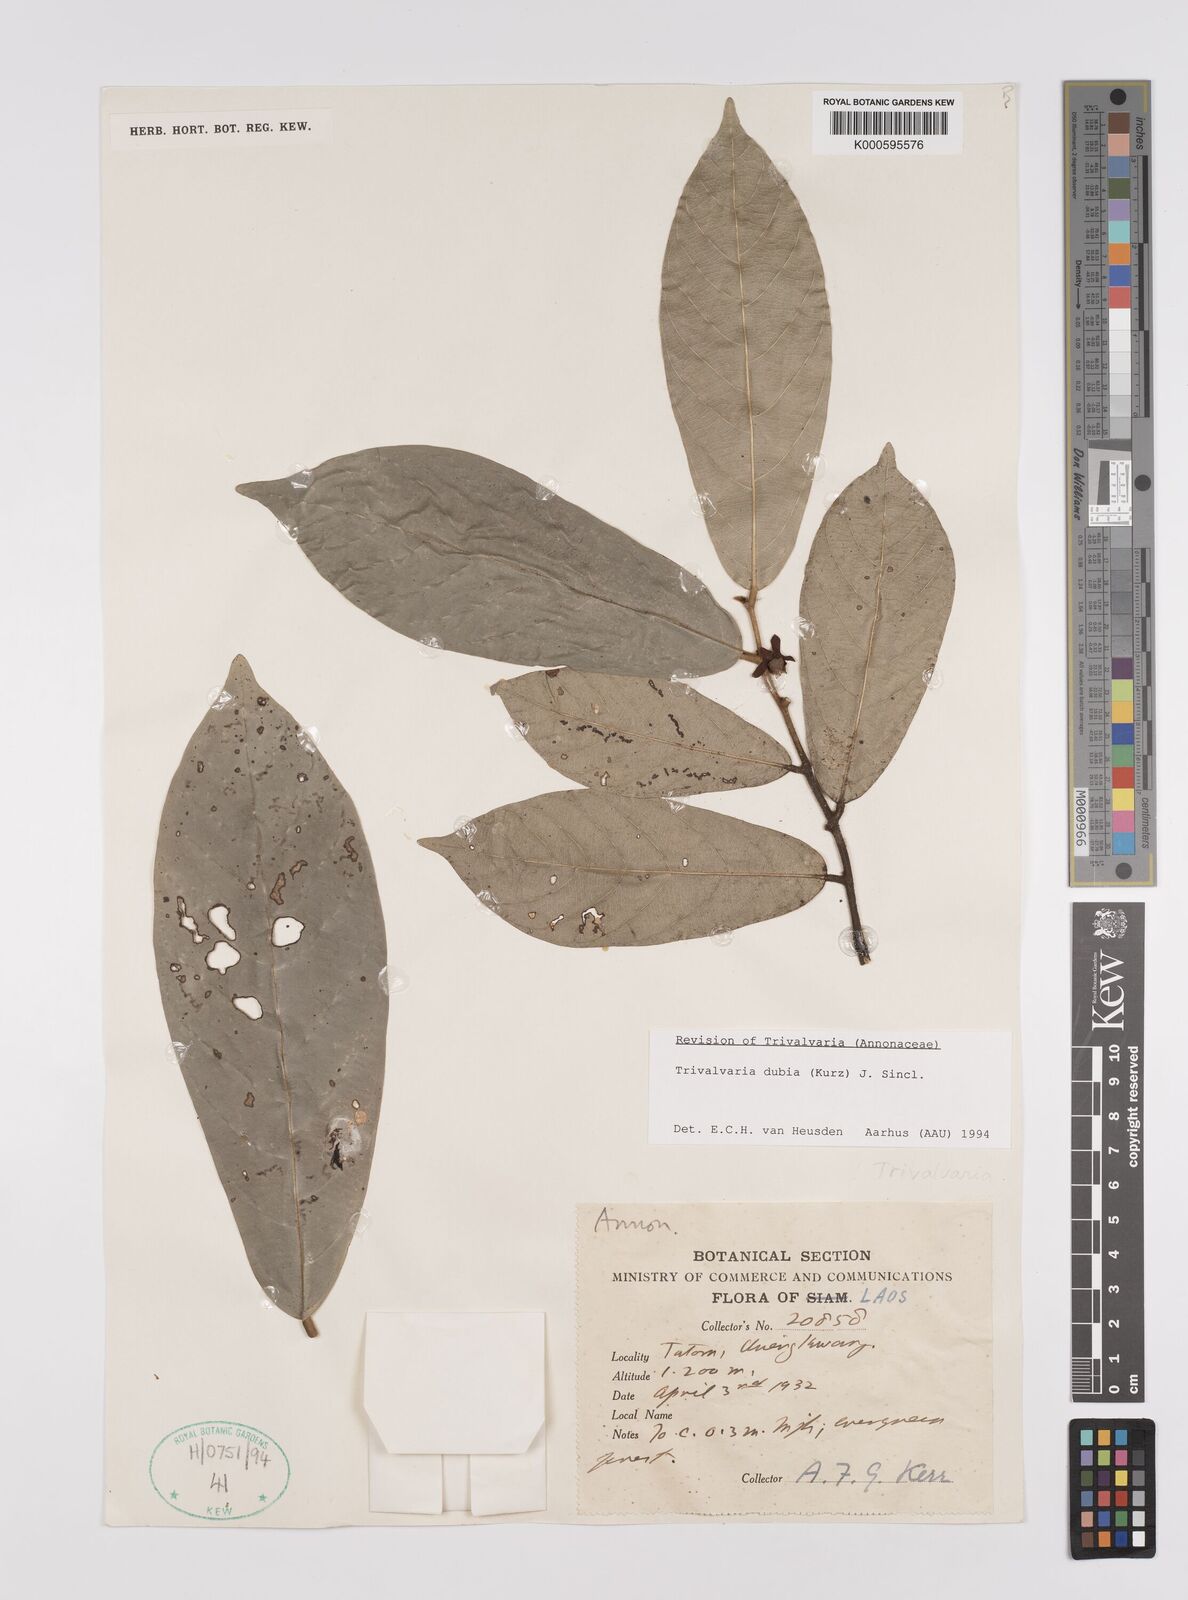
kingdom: Plantae
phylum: Tracheophyta
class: Magnoliopsida
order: Magnoliales
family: Annonaceae
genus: Trivalvaria
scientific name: Trivalvaria dubia
